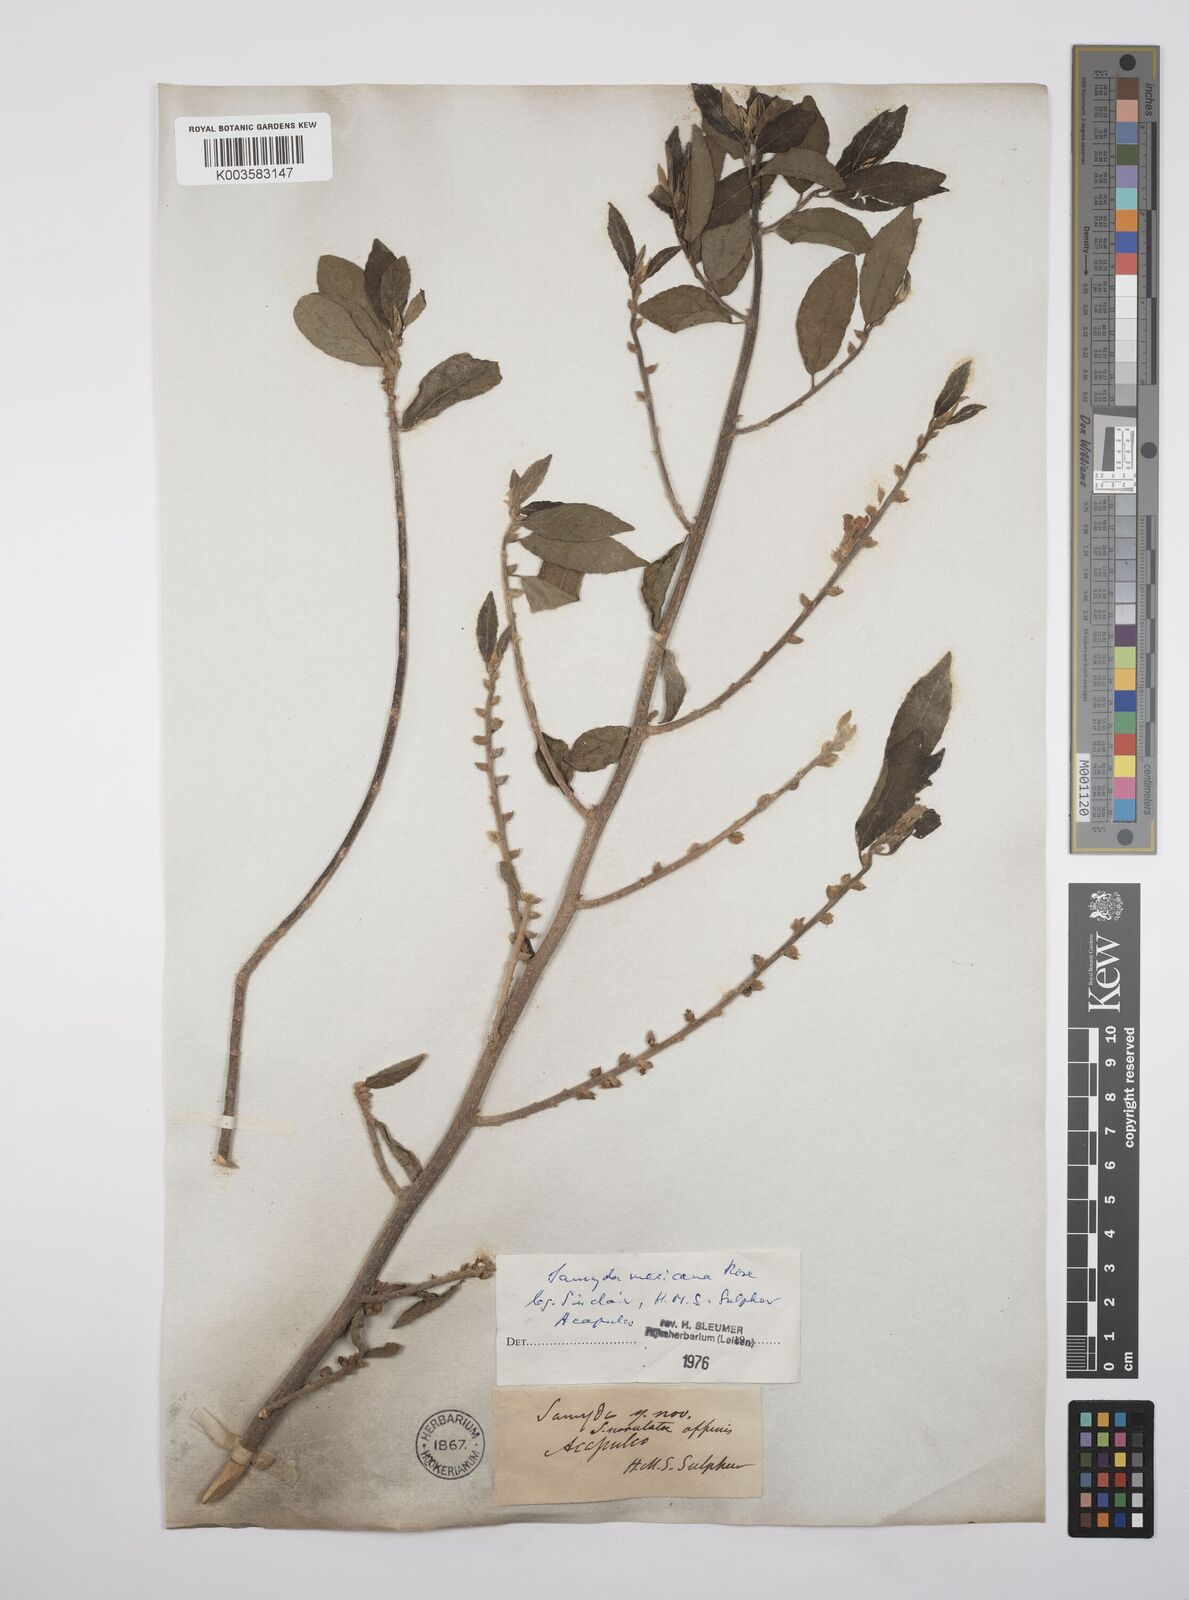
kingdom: Plantae
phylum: Tracheophyta
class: Magnoliopsida
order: Malpighiales
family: Salicaceae
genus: Casearia
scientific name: Casearia mexicana
